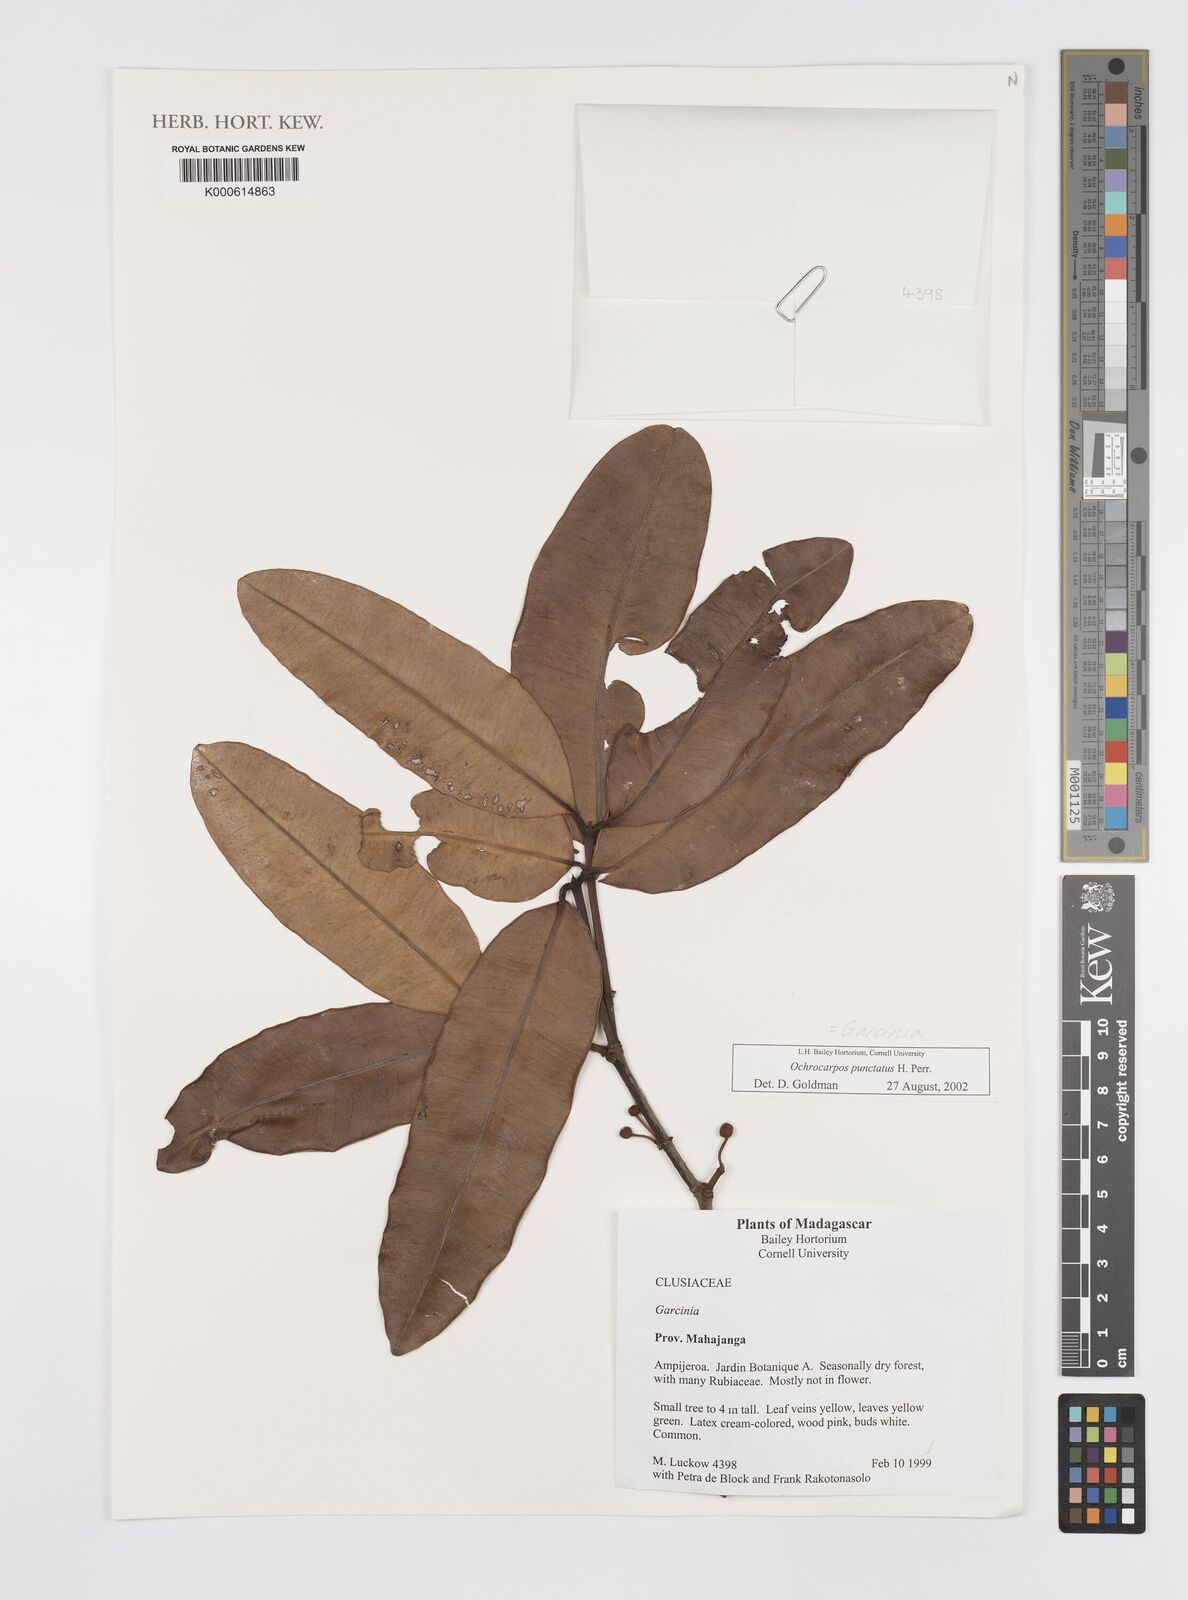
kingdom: Plantae
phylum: Tracheophyta
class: Magnoliopsida
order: Malpighiales
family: Calophyllaceae
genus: Mammea
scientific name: Mammea punctata
